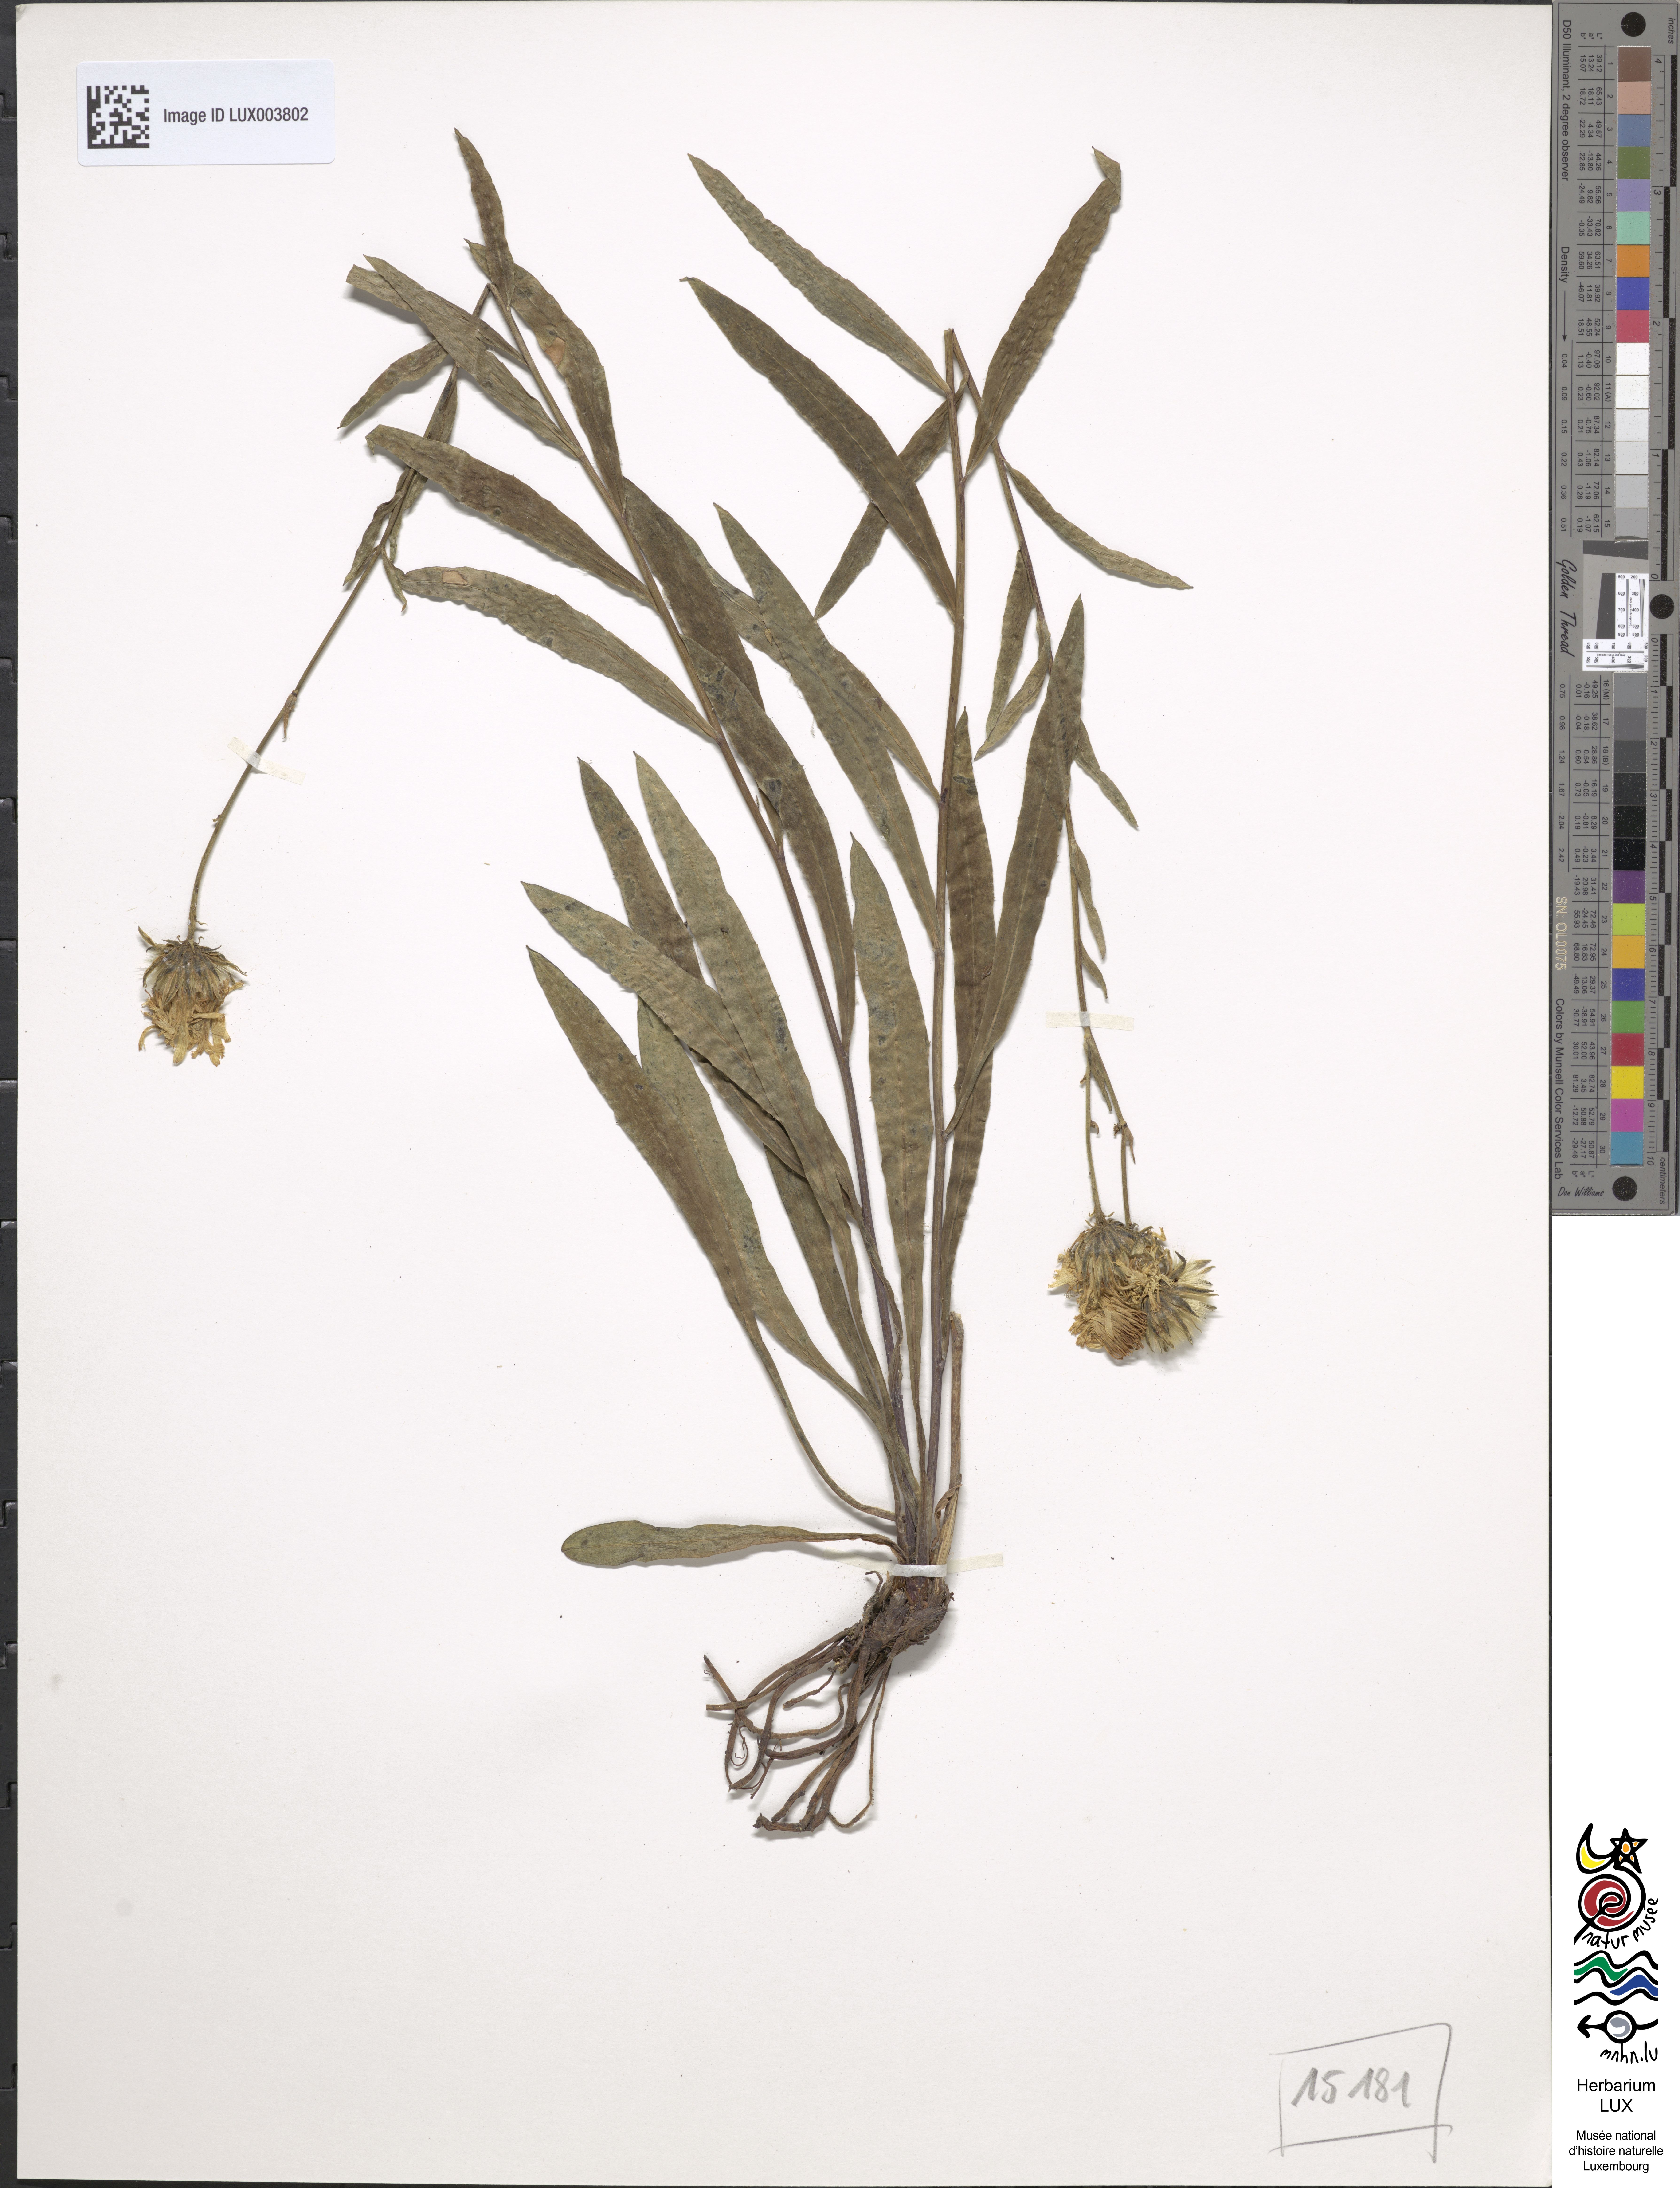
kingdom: Plantae
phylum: Tracheophyta
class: Magnoliopsida
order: Asterales
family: Asteraceae
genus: Hieracium
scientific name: Hieracium bupleuroides
